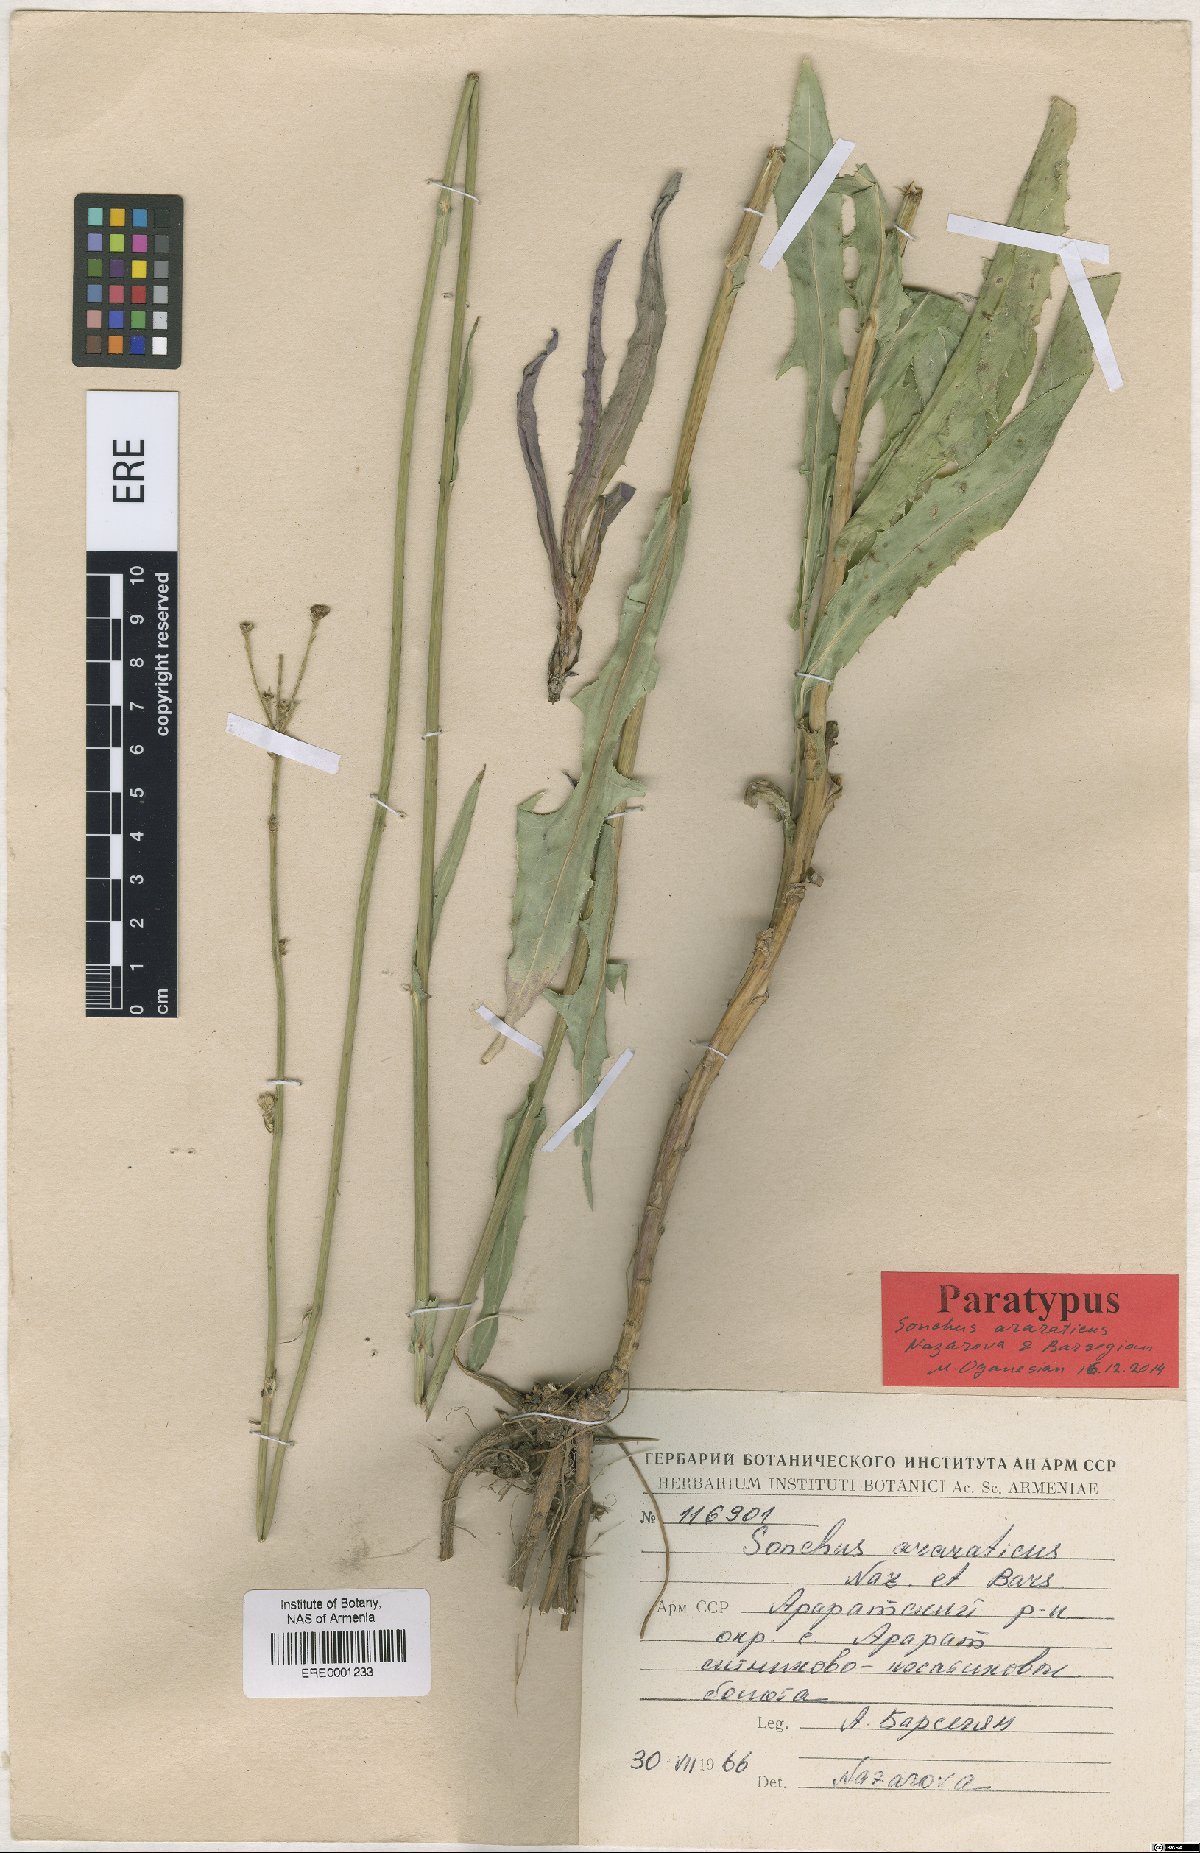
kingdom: Plantae
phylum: Tracheophyta
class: Magnoliopsida
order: Asterales
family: Asteraceae
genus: Sonchus
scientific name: Sonchus araraticus
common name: Araratian sow-thistle
